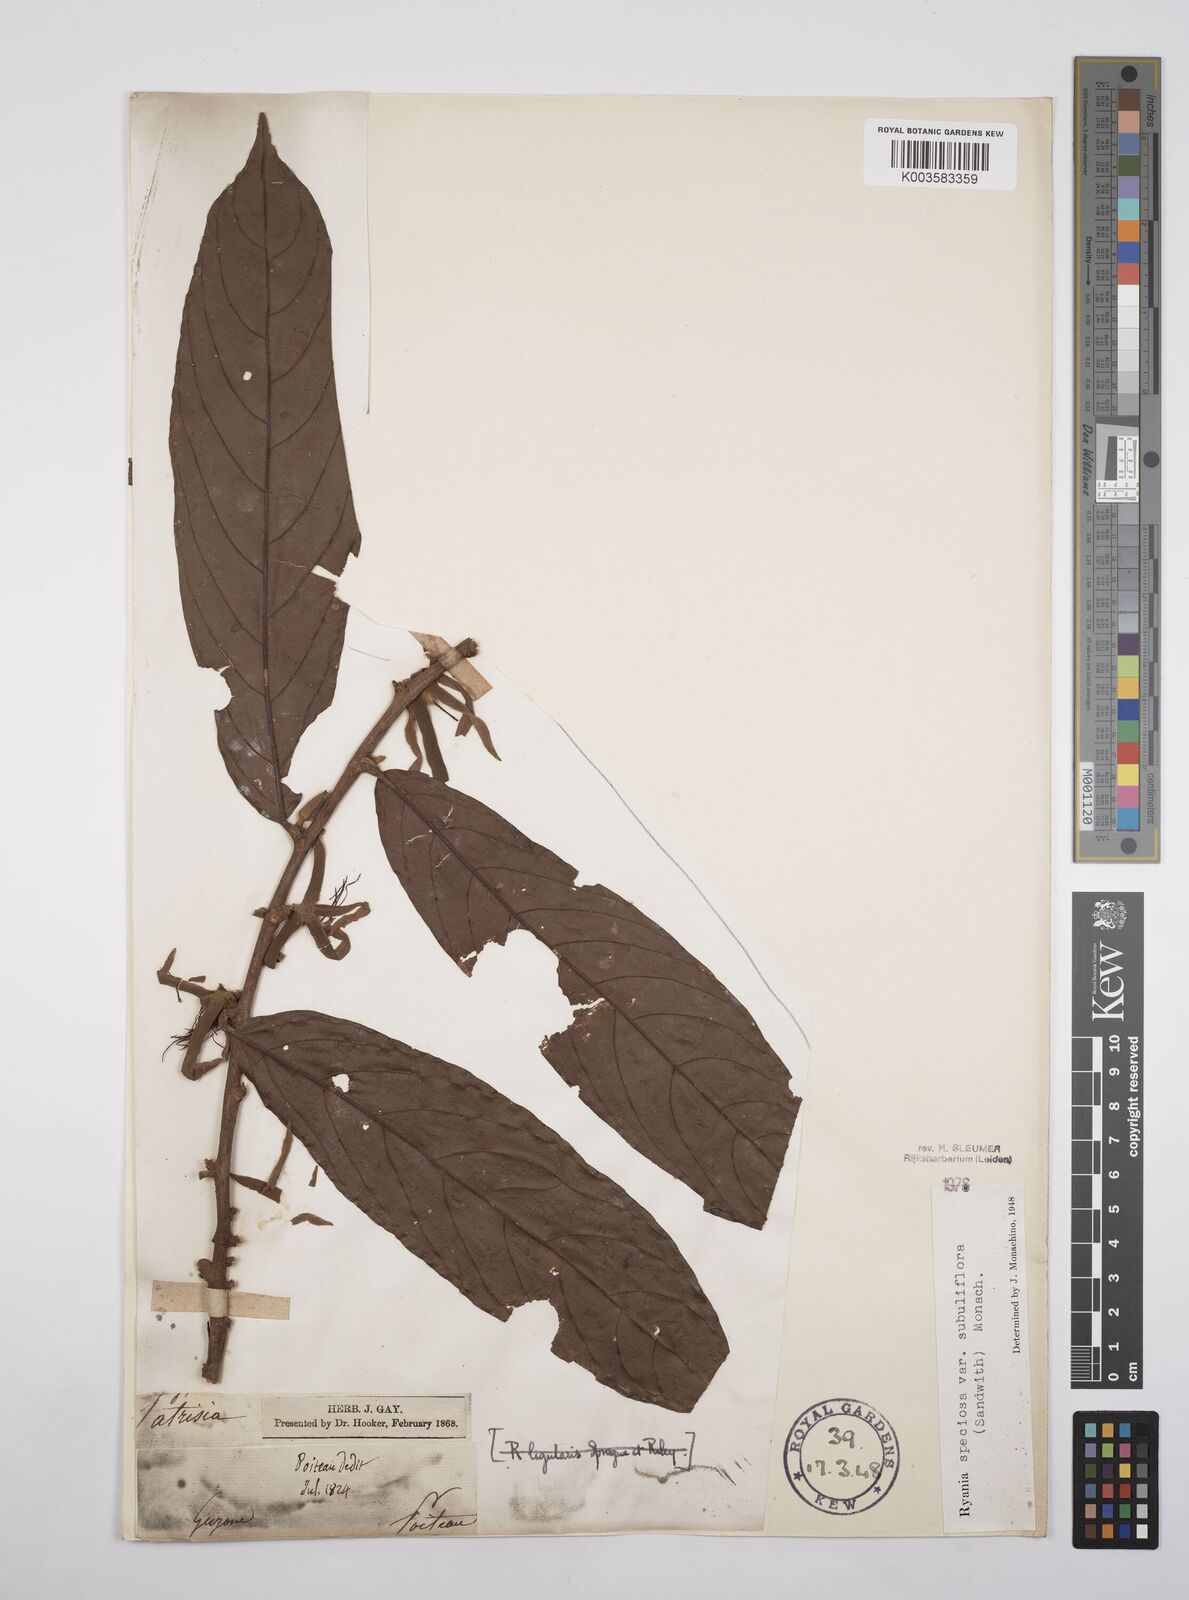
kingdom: Plantae
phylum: Tracheophyta
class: Magnoliopsida
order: Malpighiales
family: Salicaceae
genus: Ryania
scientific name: Ryania speciosa
